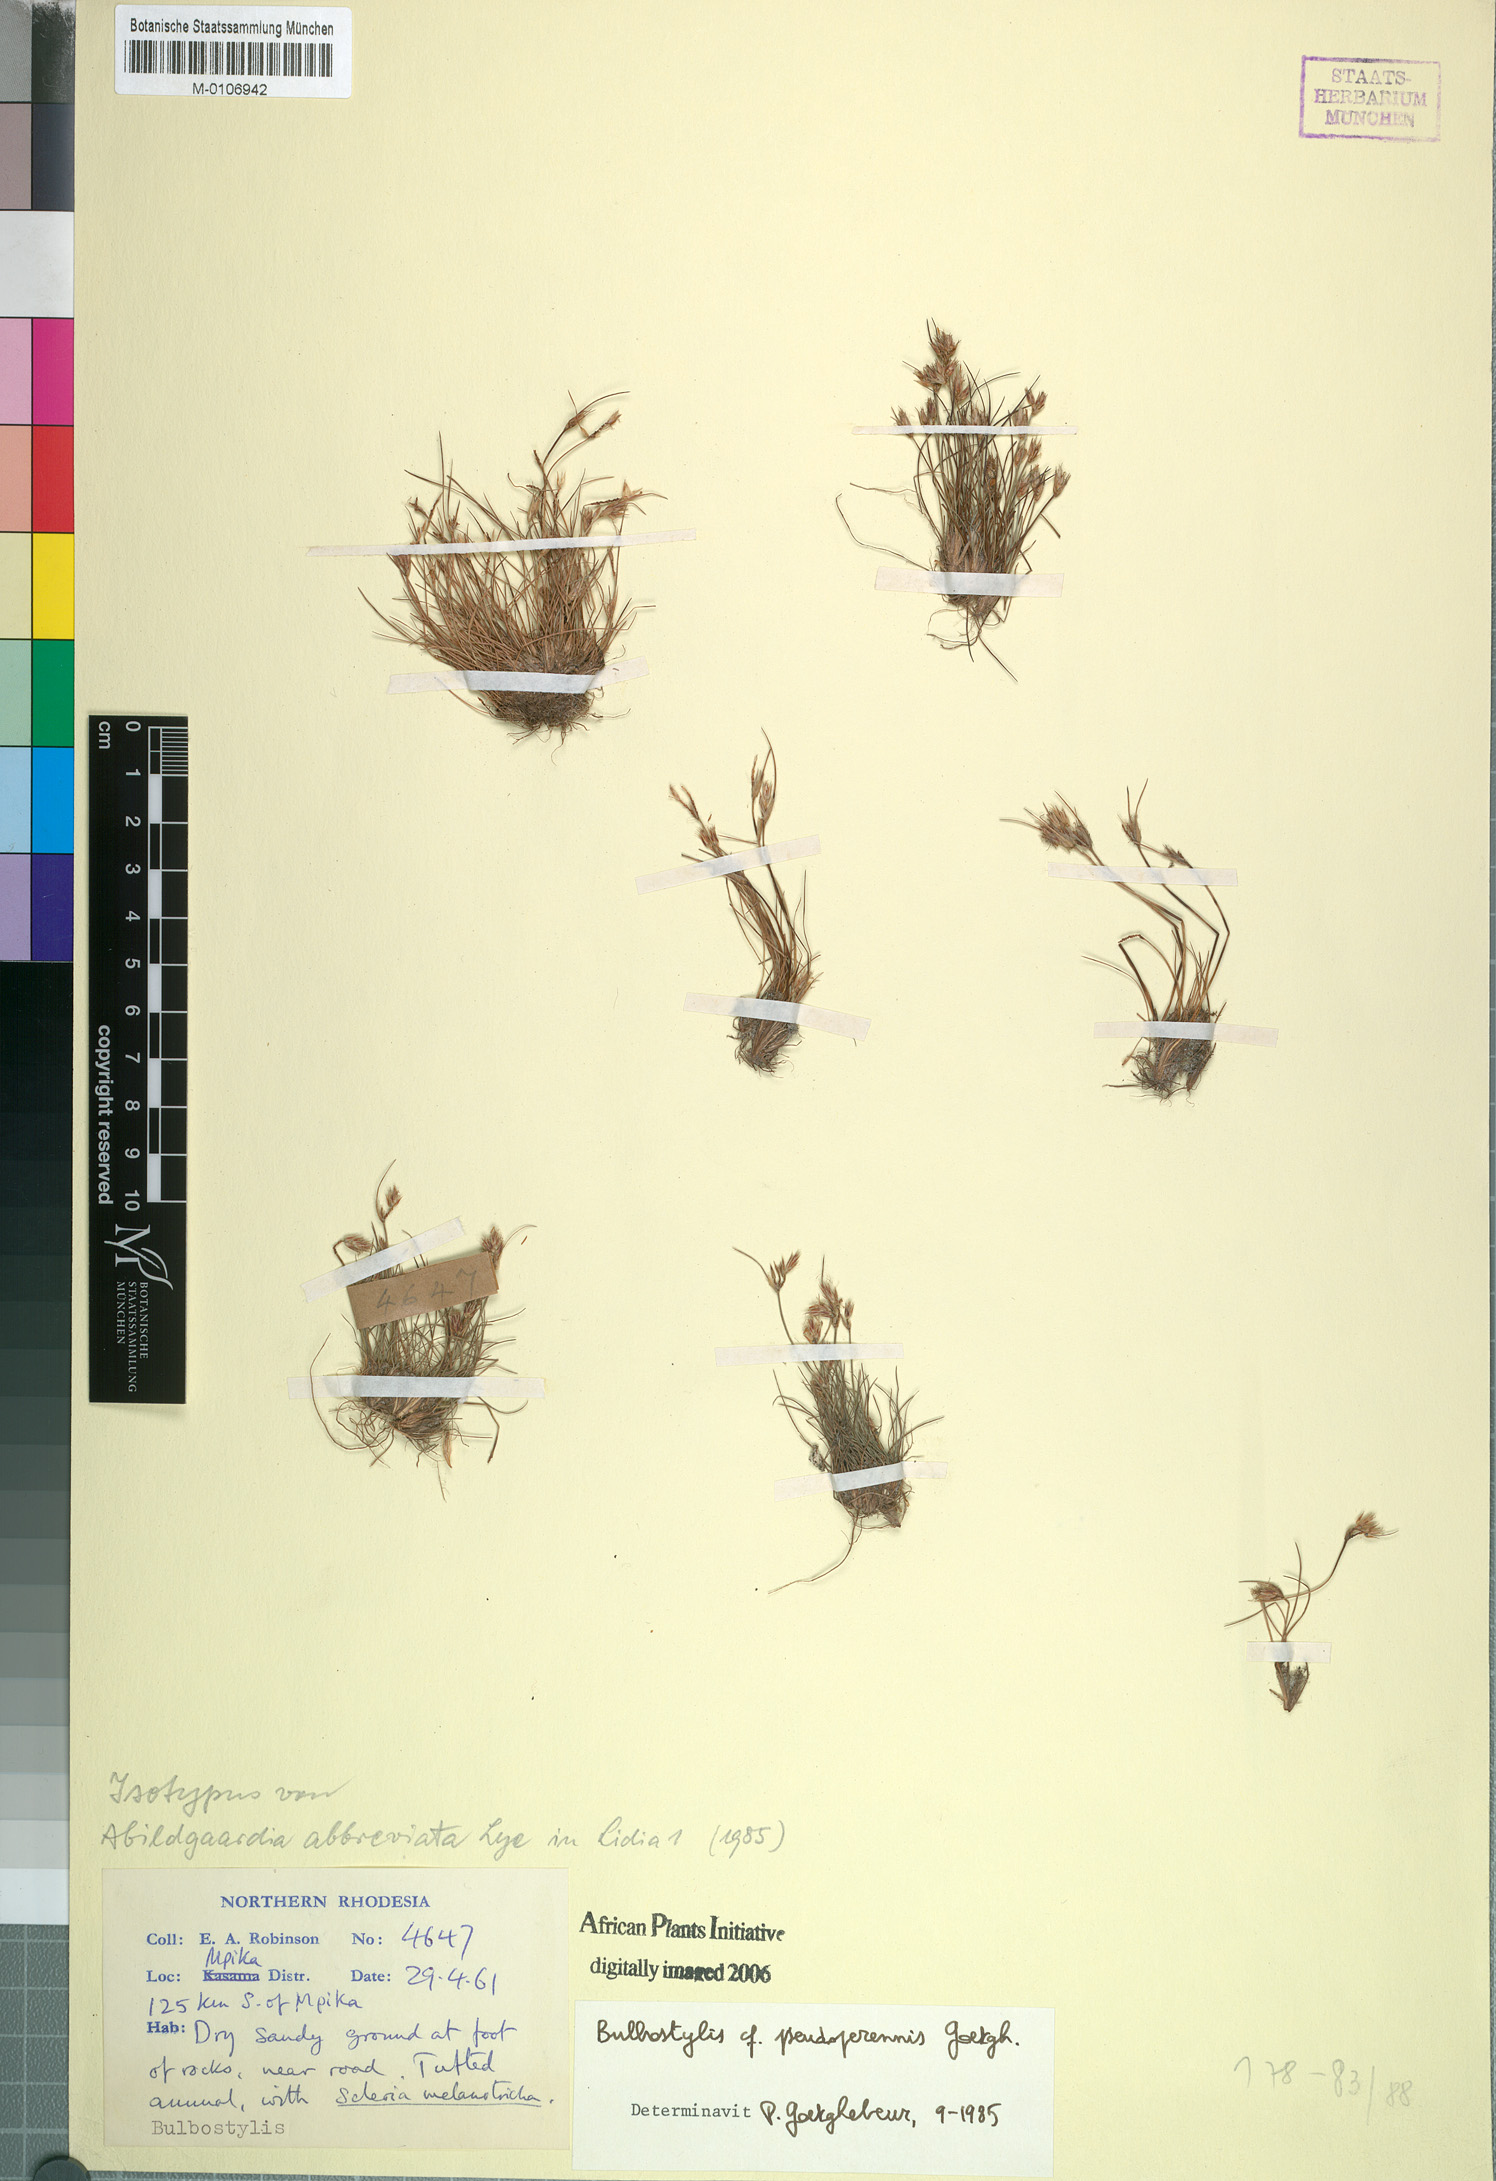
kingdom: Plantae
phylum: Tracheophyta
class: Liliopsida
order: Poales
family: Cyperaceae
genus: Bulbostylis
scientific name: Bulbostylis abbreviata
